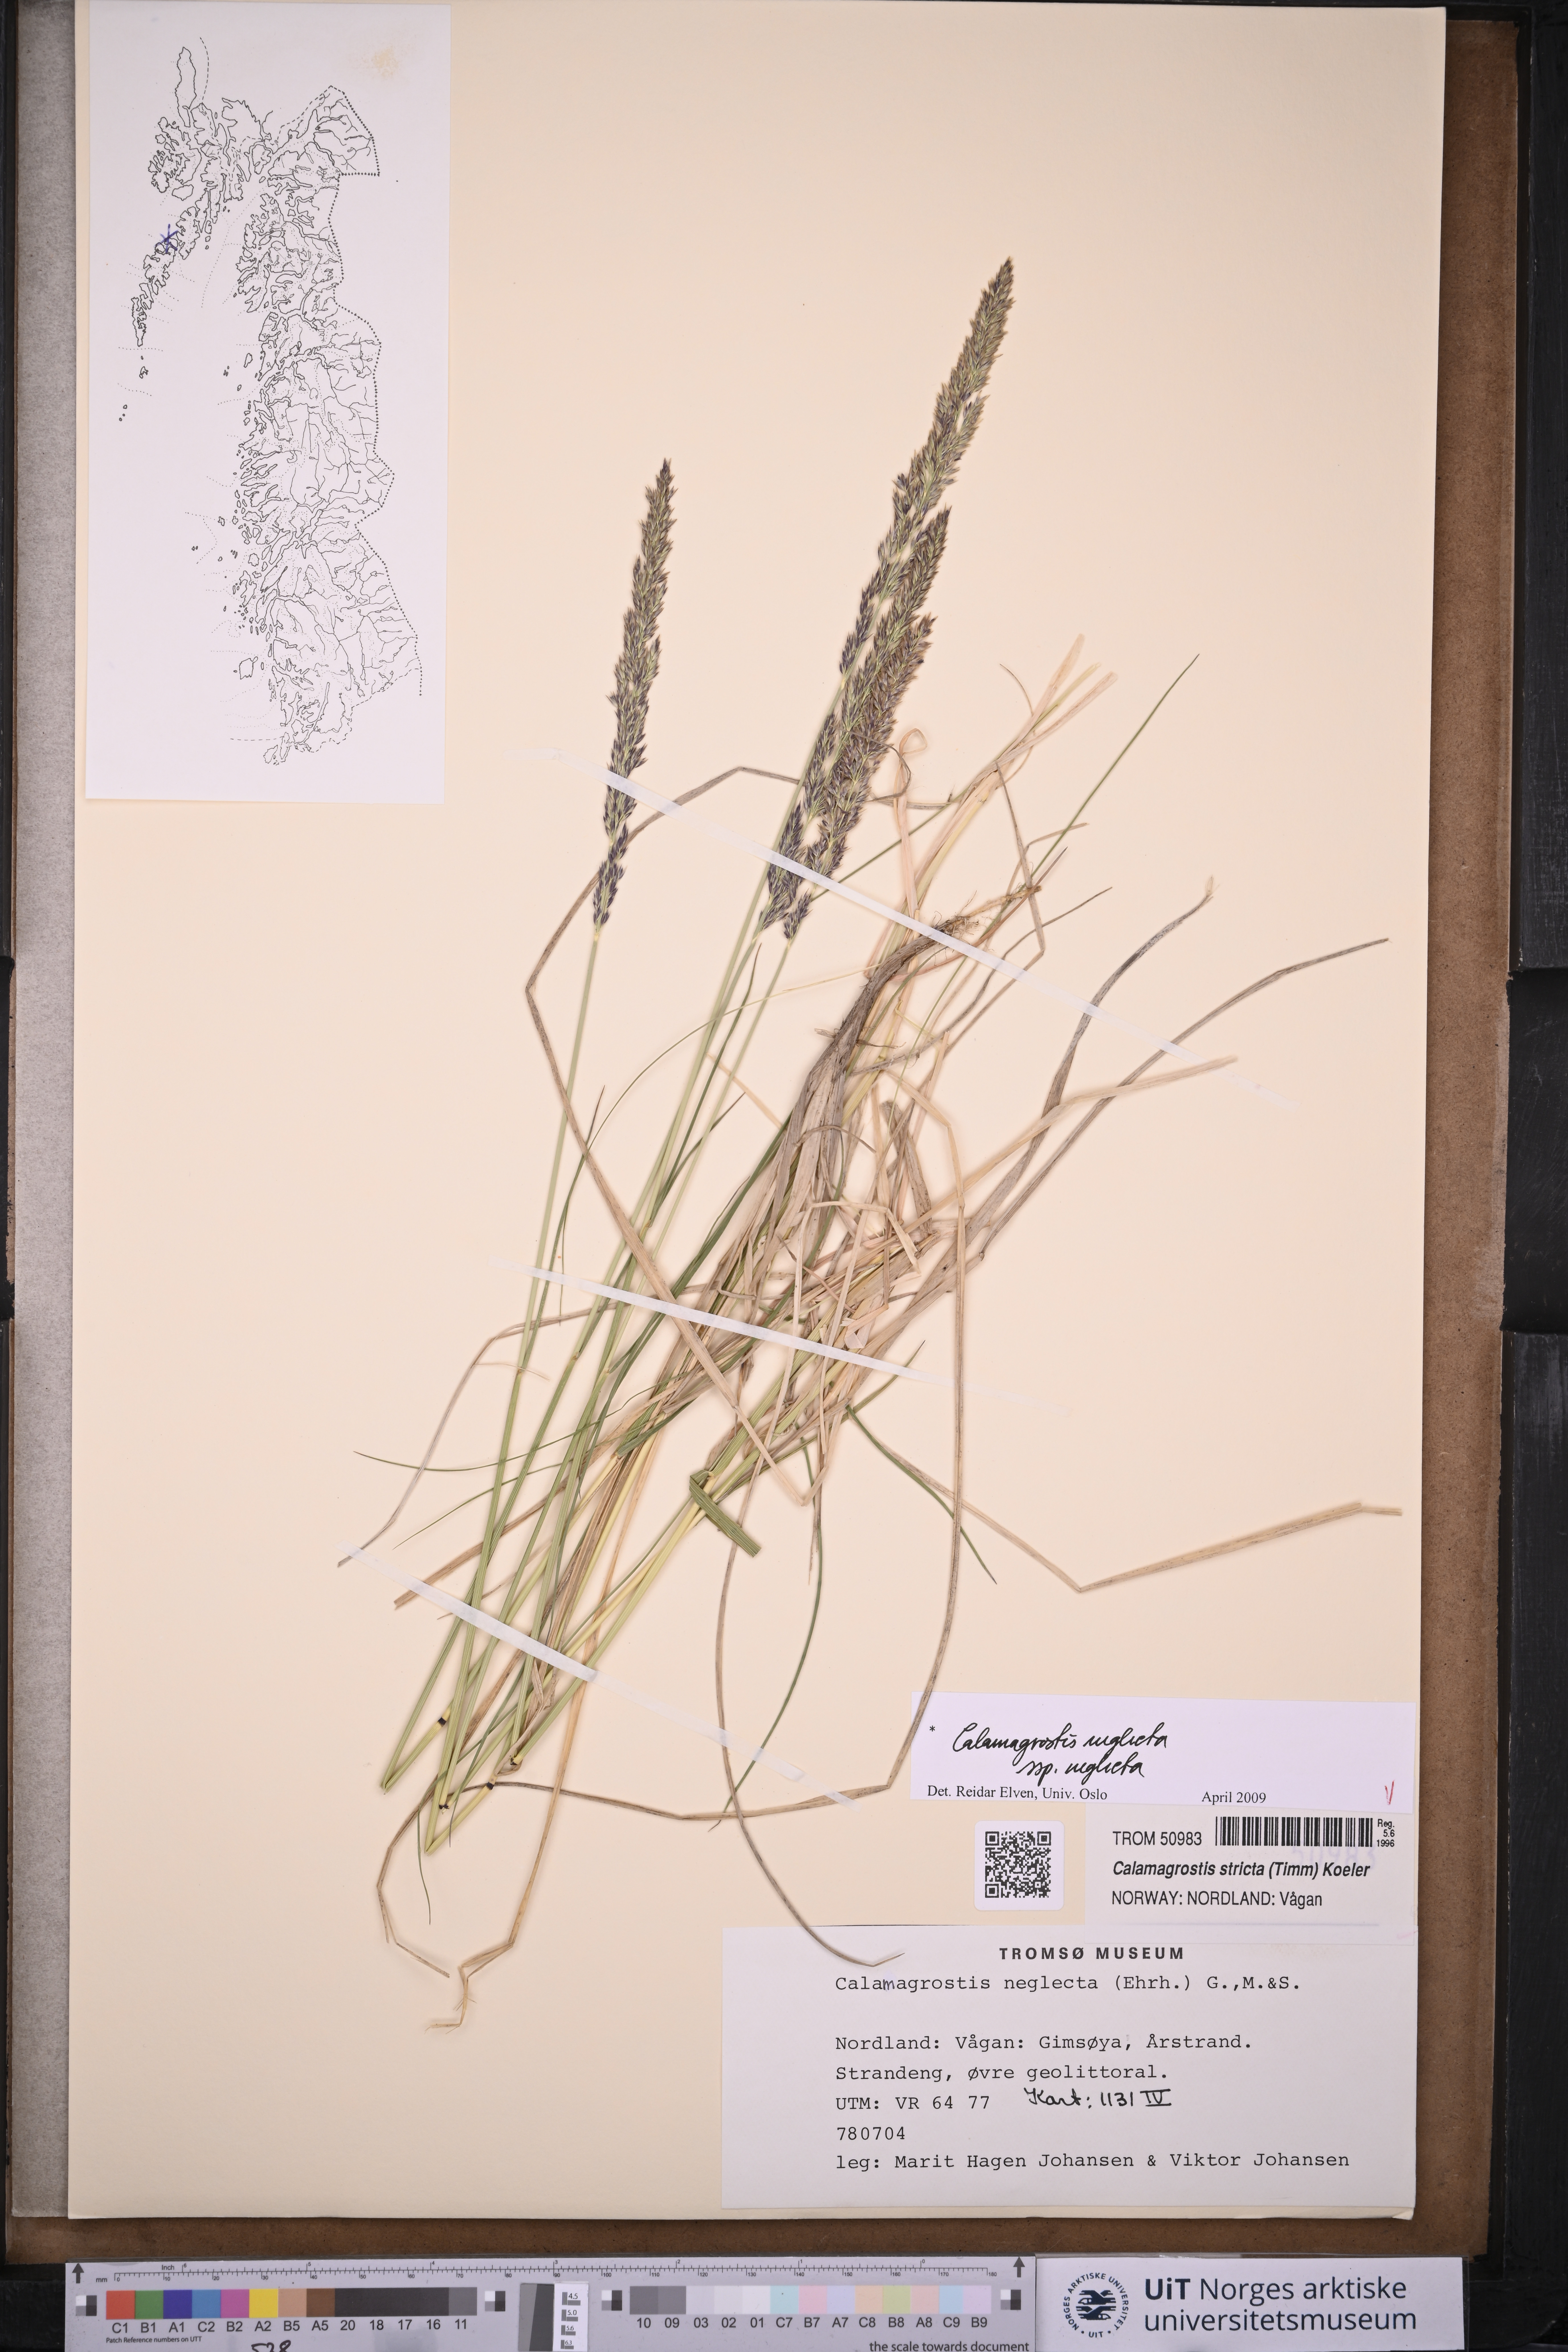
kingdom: Plantae
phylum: Tracheophyta
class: Liliopsida
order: Poales
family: Poaceae
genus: Achnatherum
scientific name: Achnatherum calamagrostis
